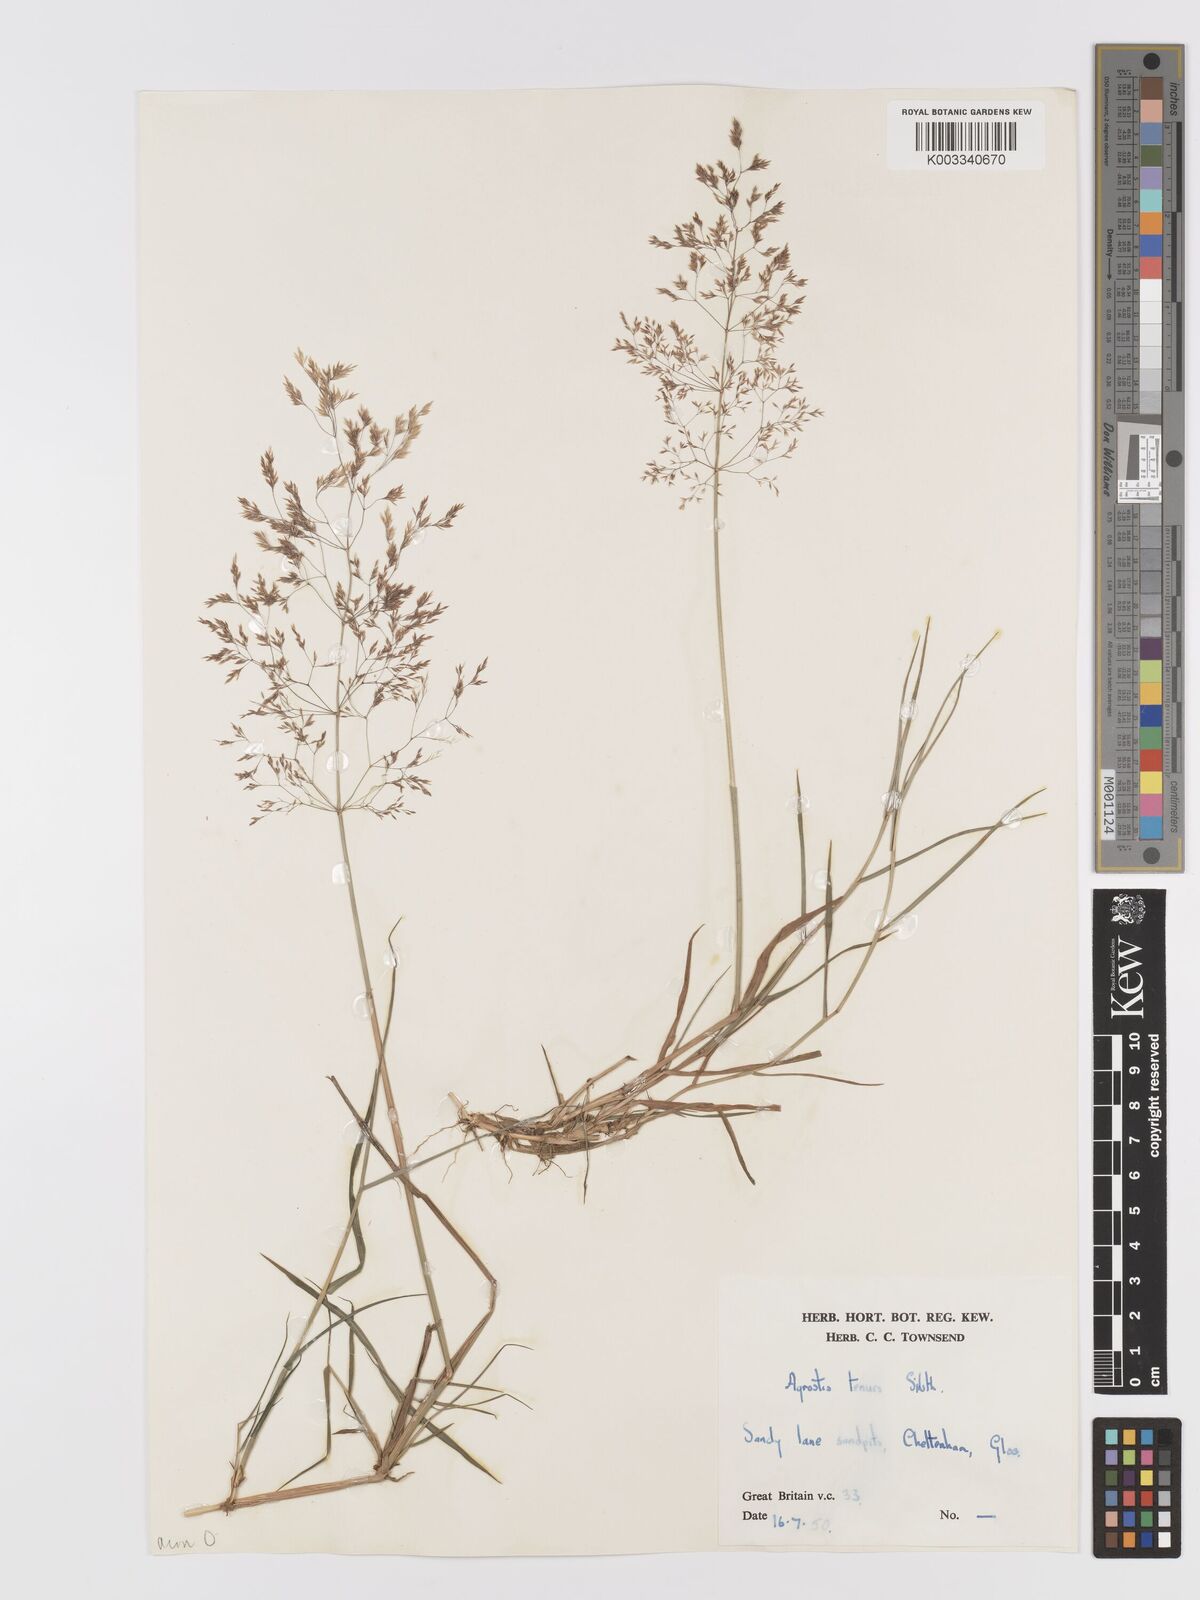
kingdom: Plantae
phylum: Tracheophyta
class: Liliopsida
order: Poales
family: Poaceae
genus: Agrostis
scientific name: Agrostis capillaris
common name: Colonial bentgrass
